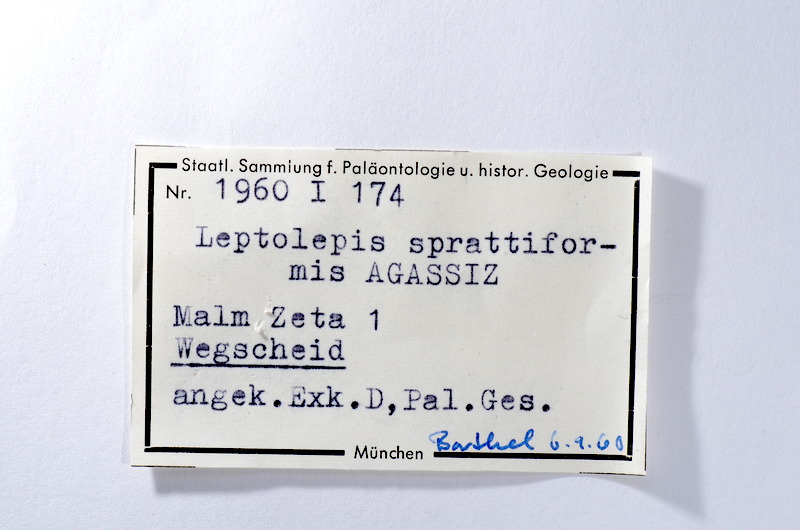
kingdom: Animalia
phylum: Chordata
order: Salmoniformes
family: Orthogonikleithridae
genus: Leptolepides
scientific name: Leptolepides sprattiformis
